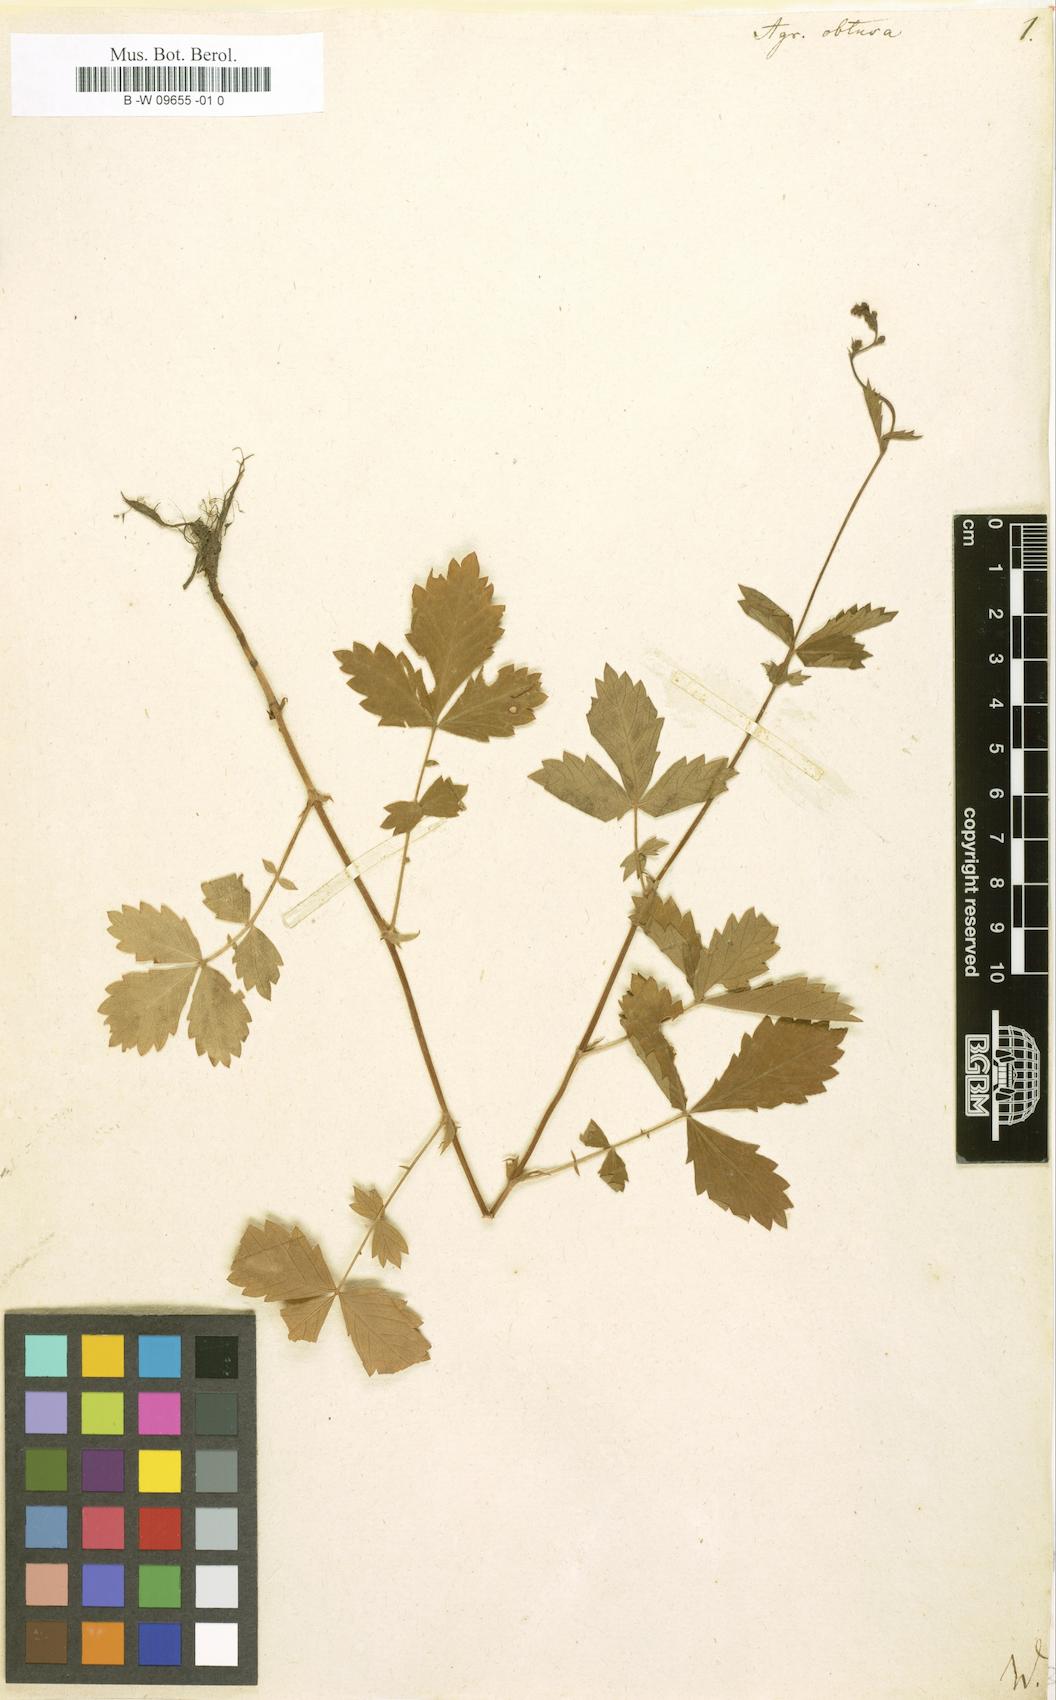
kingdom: Plantae
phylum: Tracheophyta
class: Magnoliopsida
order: Rosales
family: Rosaceae
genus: Agrimonia
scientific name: Agrimonia
